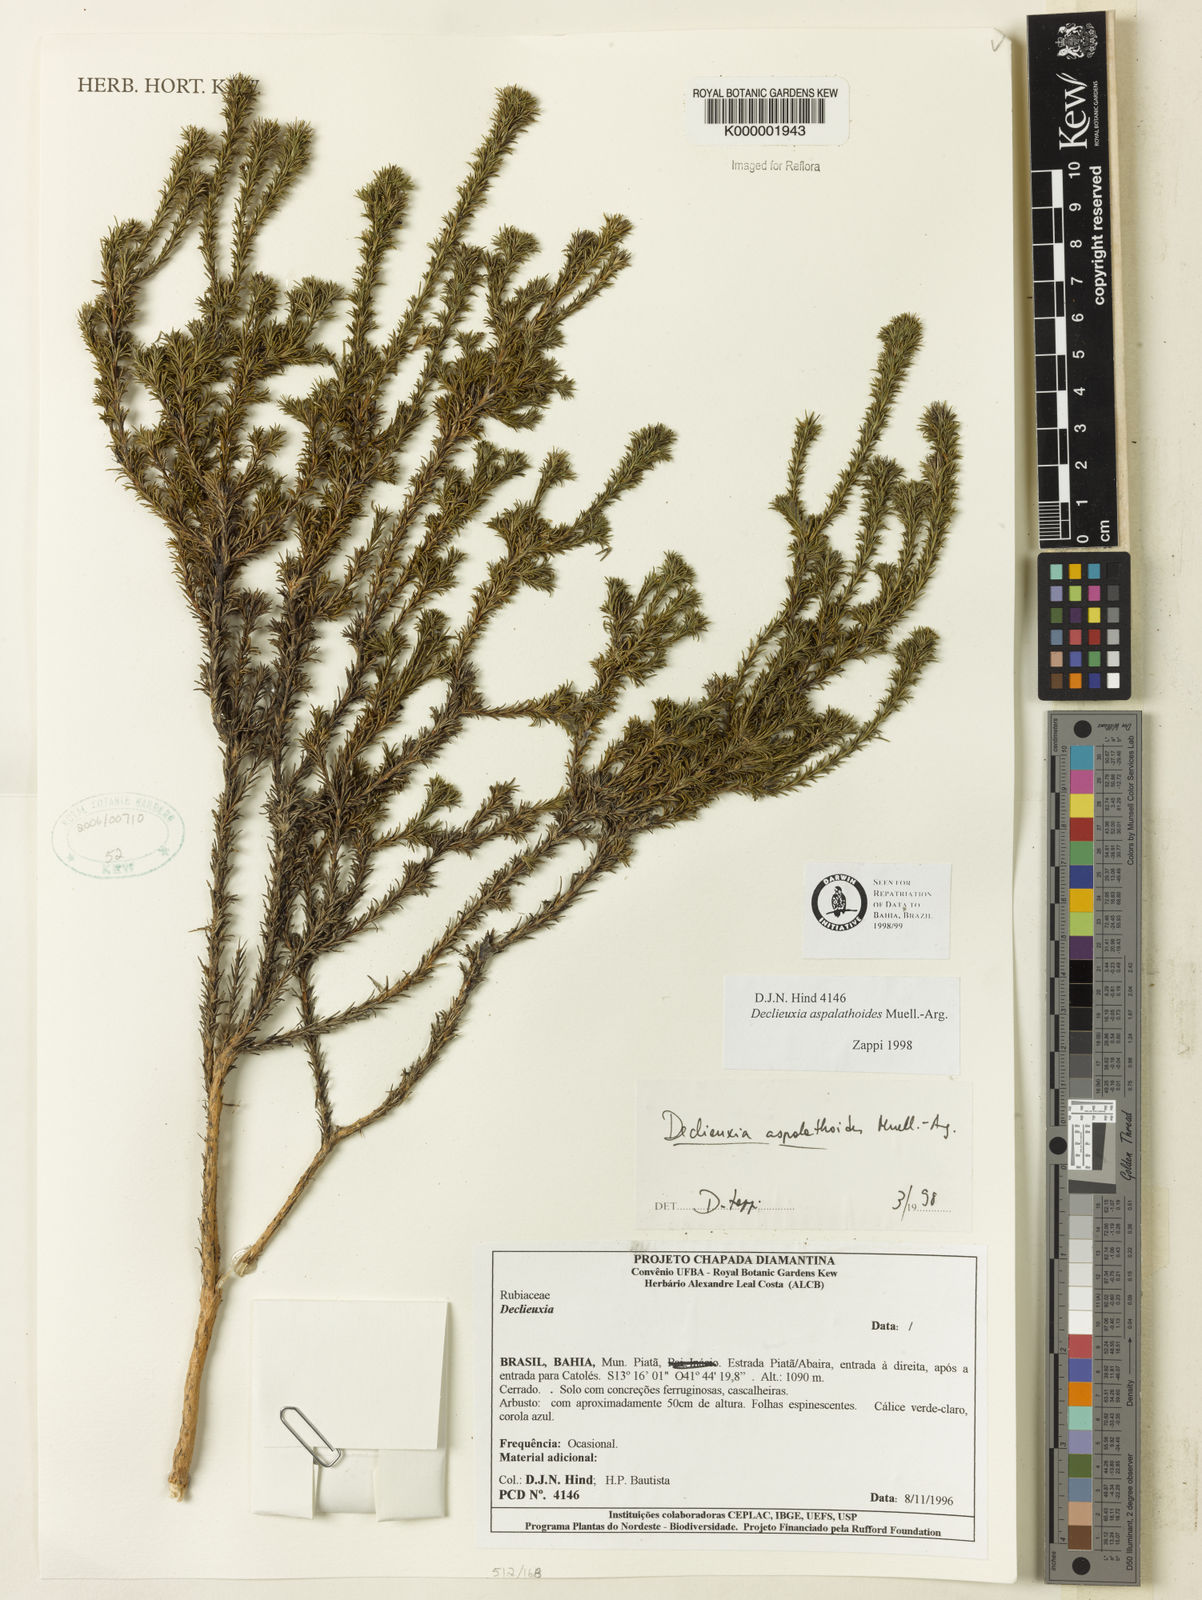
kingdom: Plantae
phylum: Tracheophyta
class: Magnoliopsida
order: Gentianales
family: Rubiaceae
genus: Declieuxia
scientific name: Declieuxia aspalathoides
